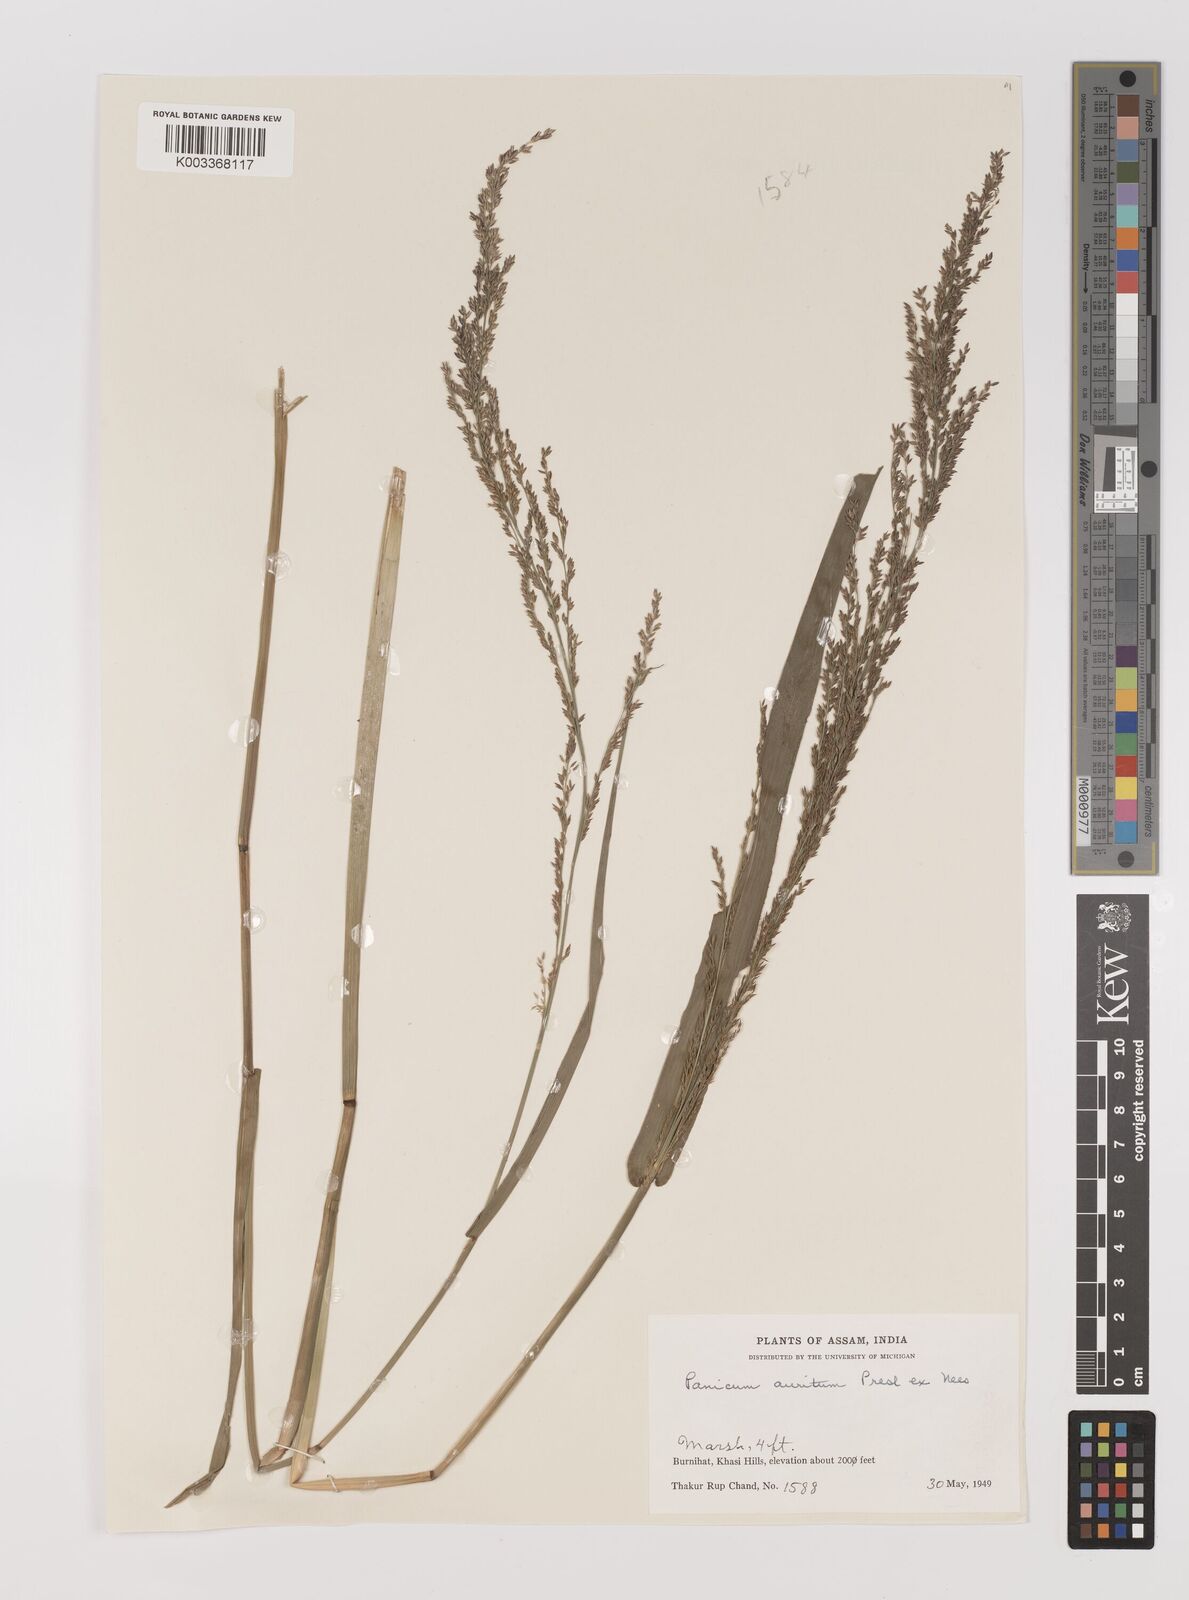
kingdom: Plantae
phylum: Tracheophyta
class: Liliopsida
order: Poales
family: Poaceae
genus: Hymenachne
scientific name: Hymenachne aurita
